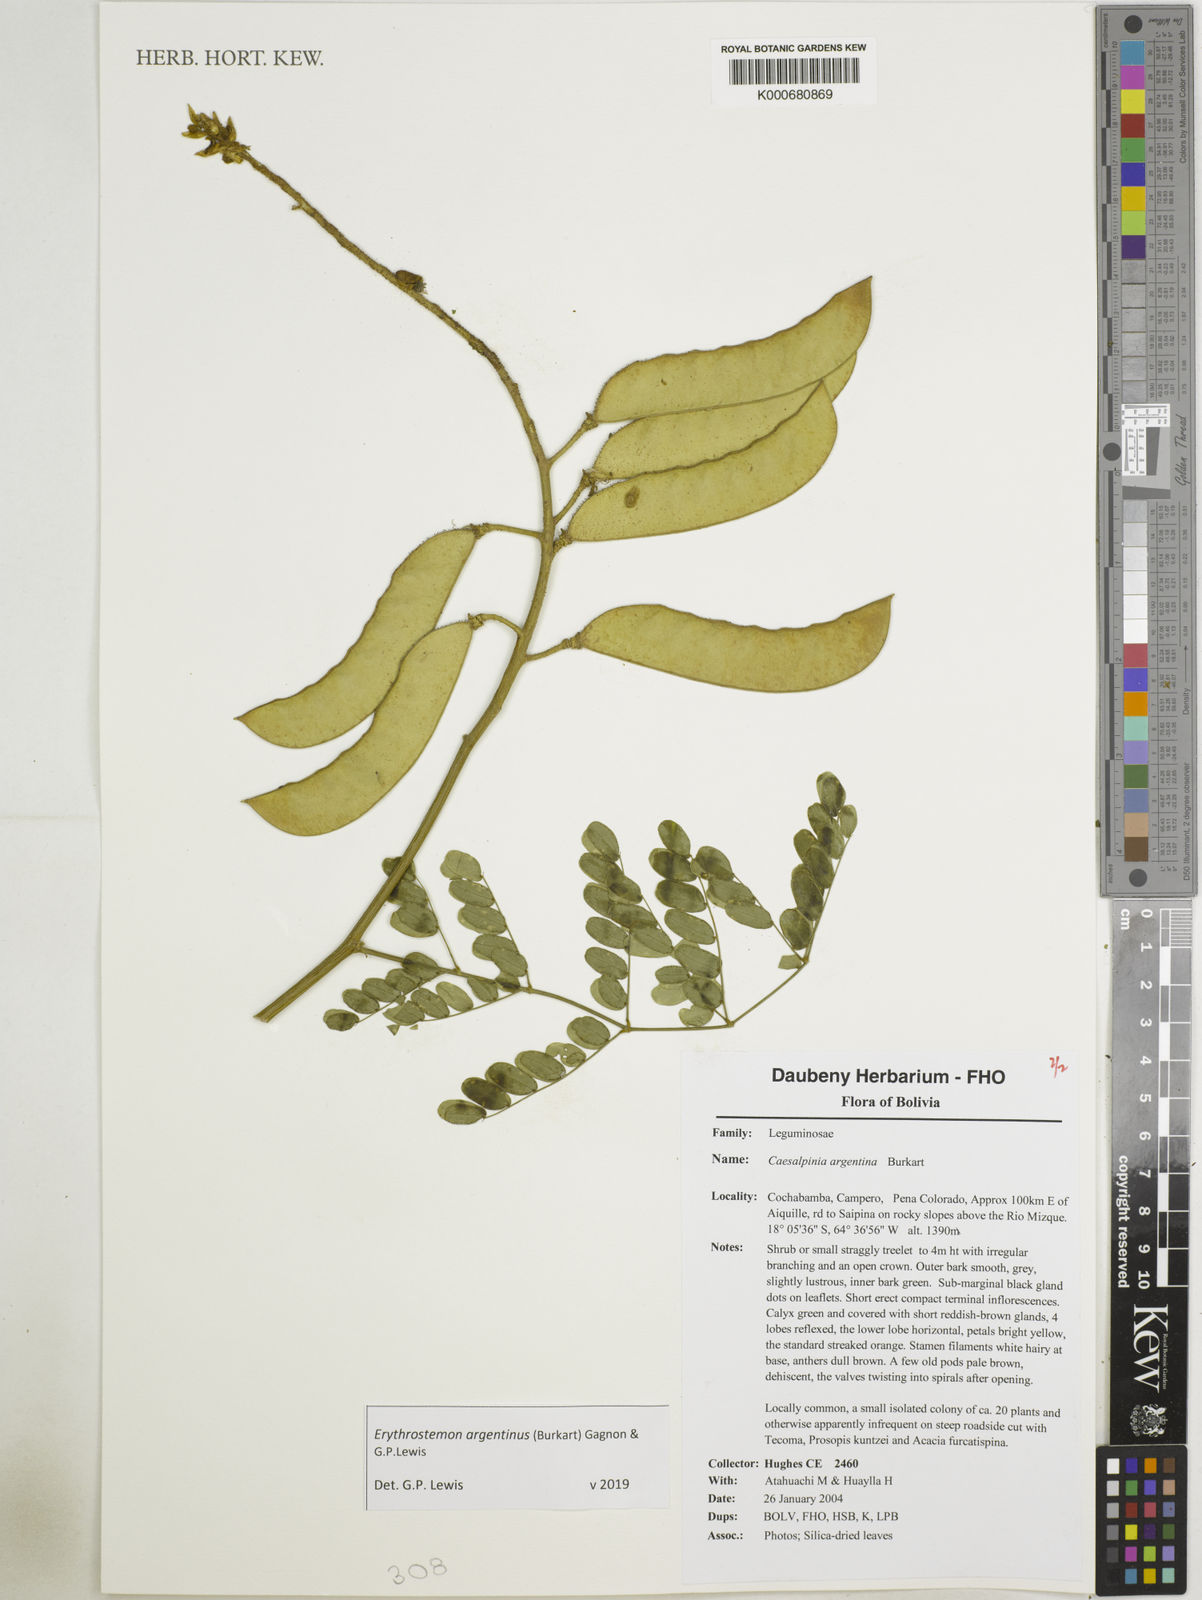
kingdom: Plantae
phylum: Tracheophyta
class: Magnoliopsida
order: Fabales
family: Fabaceae
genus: Erythrostemon
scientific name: Erythrostemon argentinus
